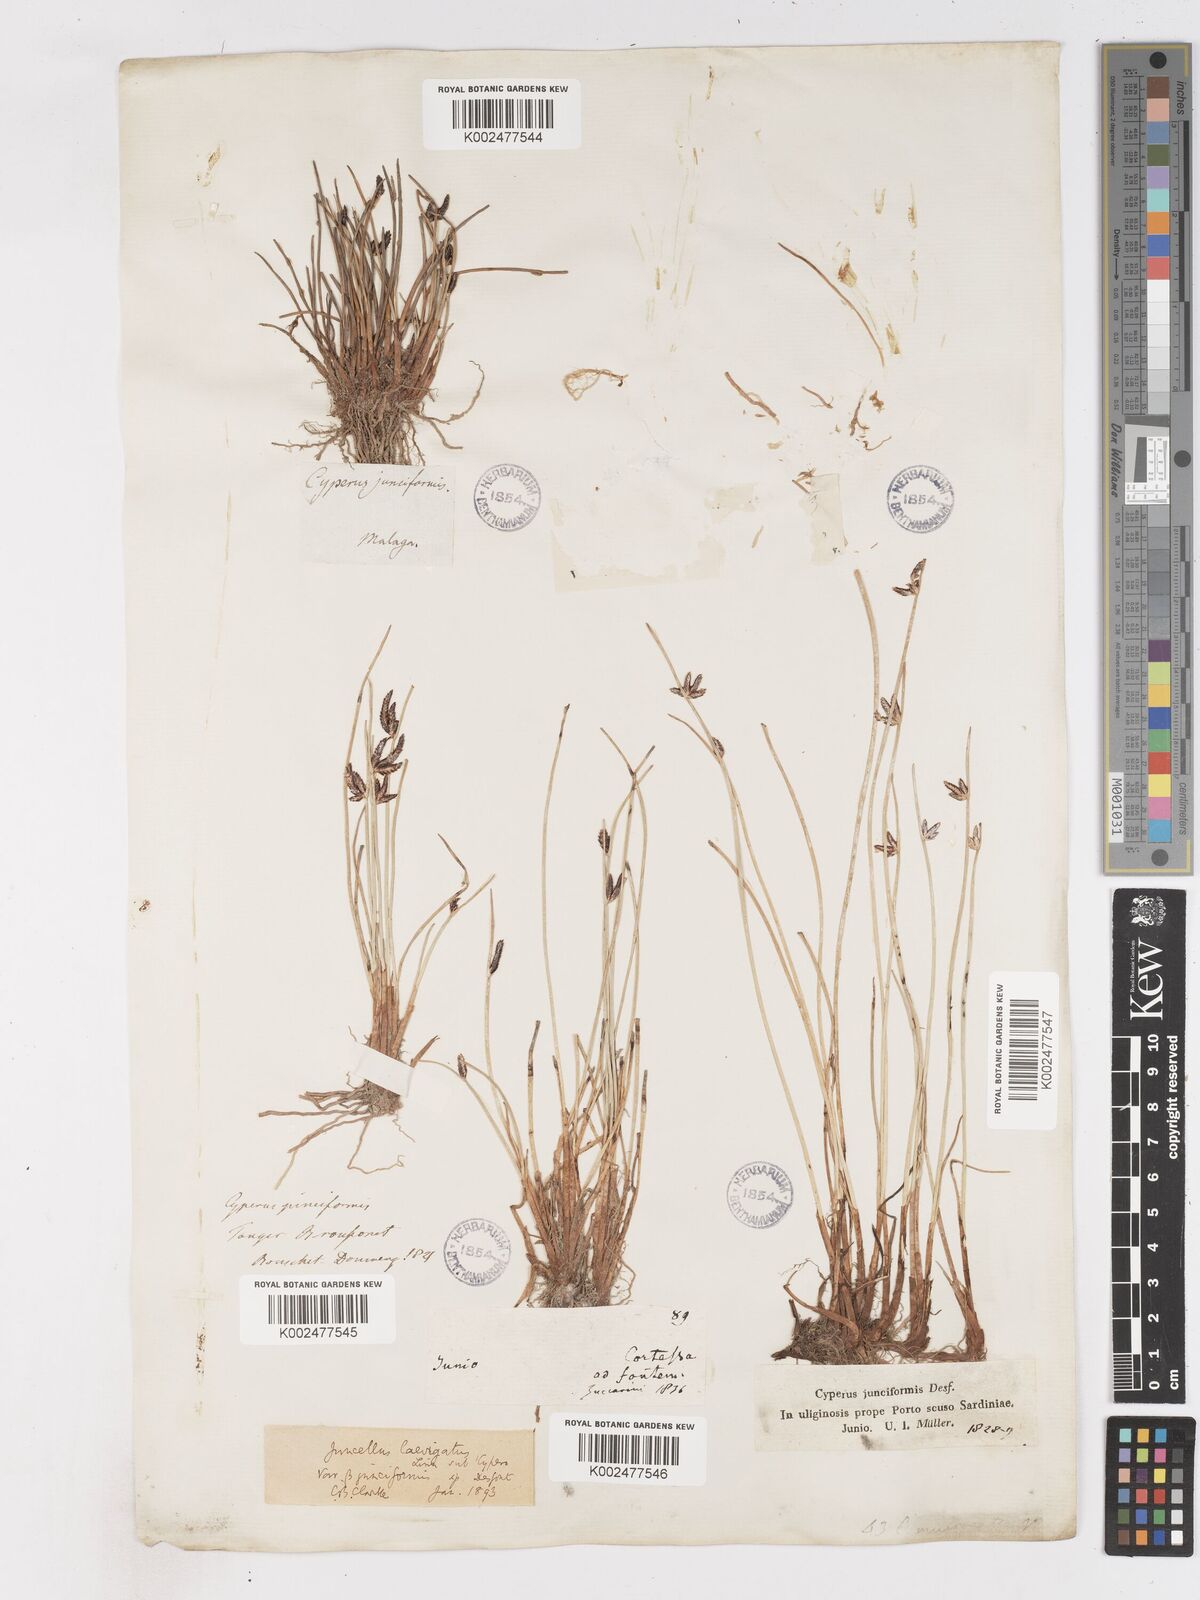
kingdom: Plantae
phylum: Tracheophyta
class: Liliopsida
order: Poales
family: Cyperaceae
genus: Cyperus
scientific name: Cyperus laevigatus
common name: Smooth flat sedge
